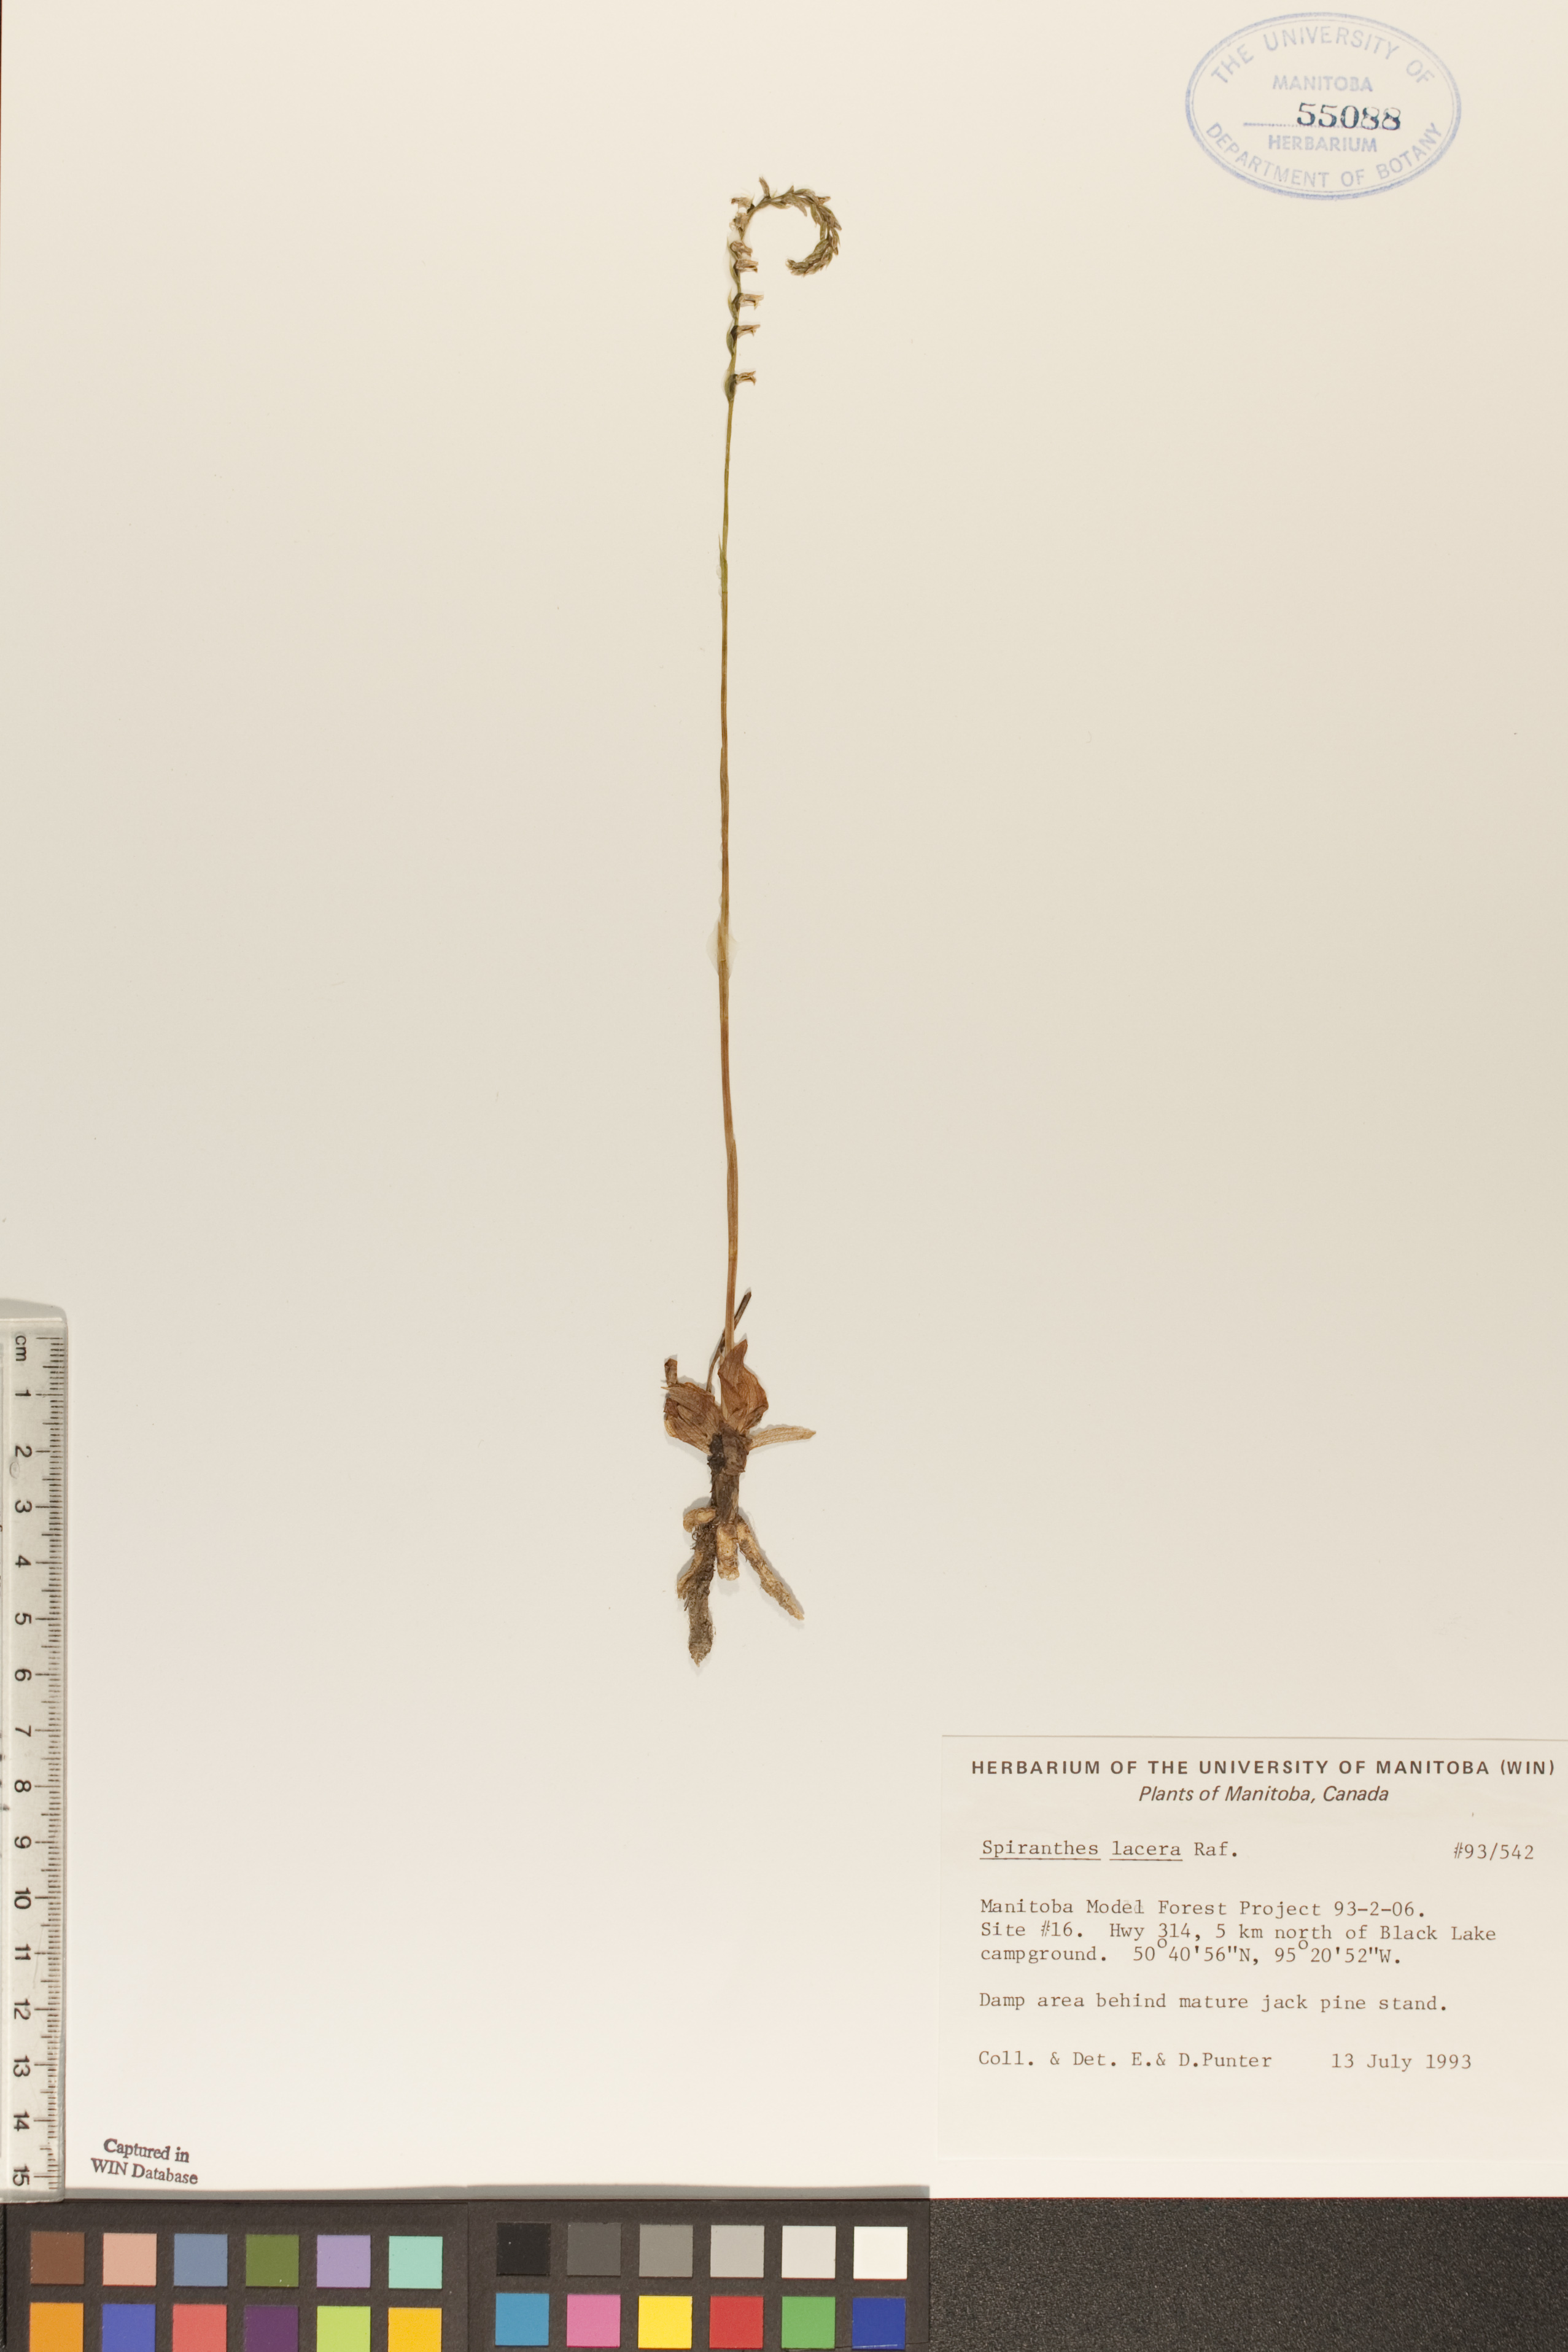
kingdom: Plantae
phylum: Tracheophyta
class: Liliopsida
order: Asparagales
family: Orchidaceae
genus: Spiranthes
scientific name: Spiranthes lacera
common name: Northern slender ladies'-tresses
